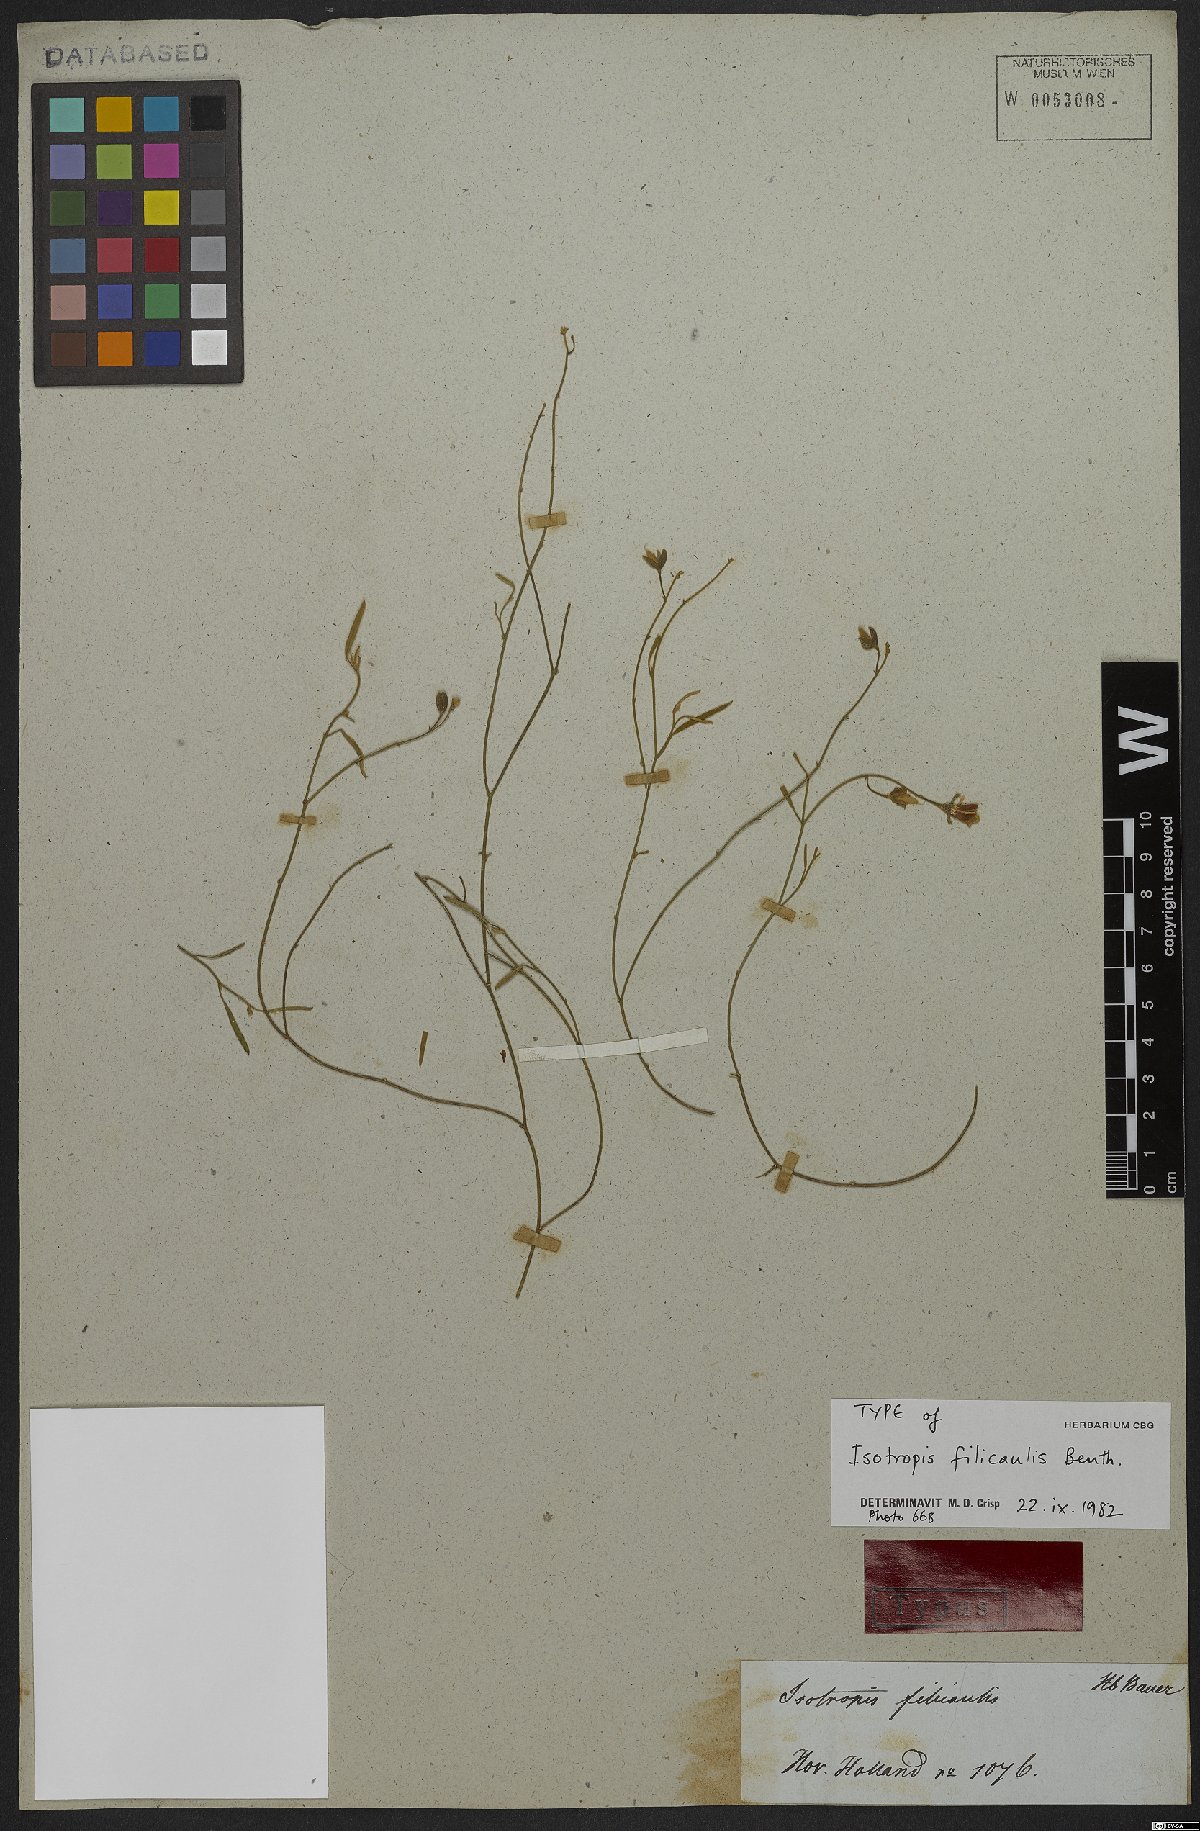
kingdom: Plantae
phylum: Tracheophyta
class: Magnoliopsida
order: Fabales
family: Fabaceae
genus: Isotropis
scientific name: Isotropis filicaulis
